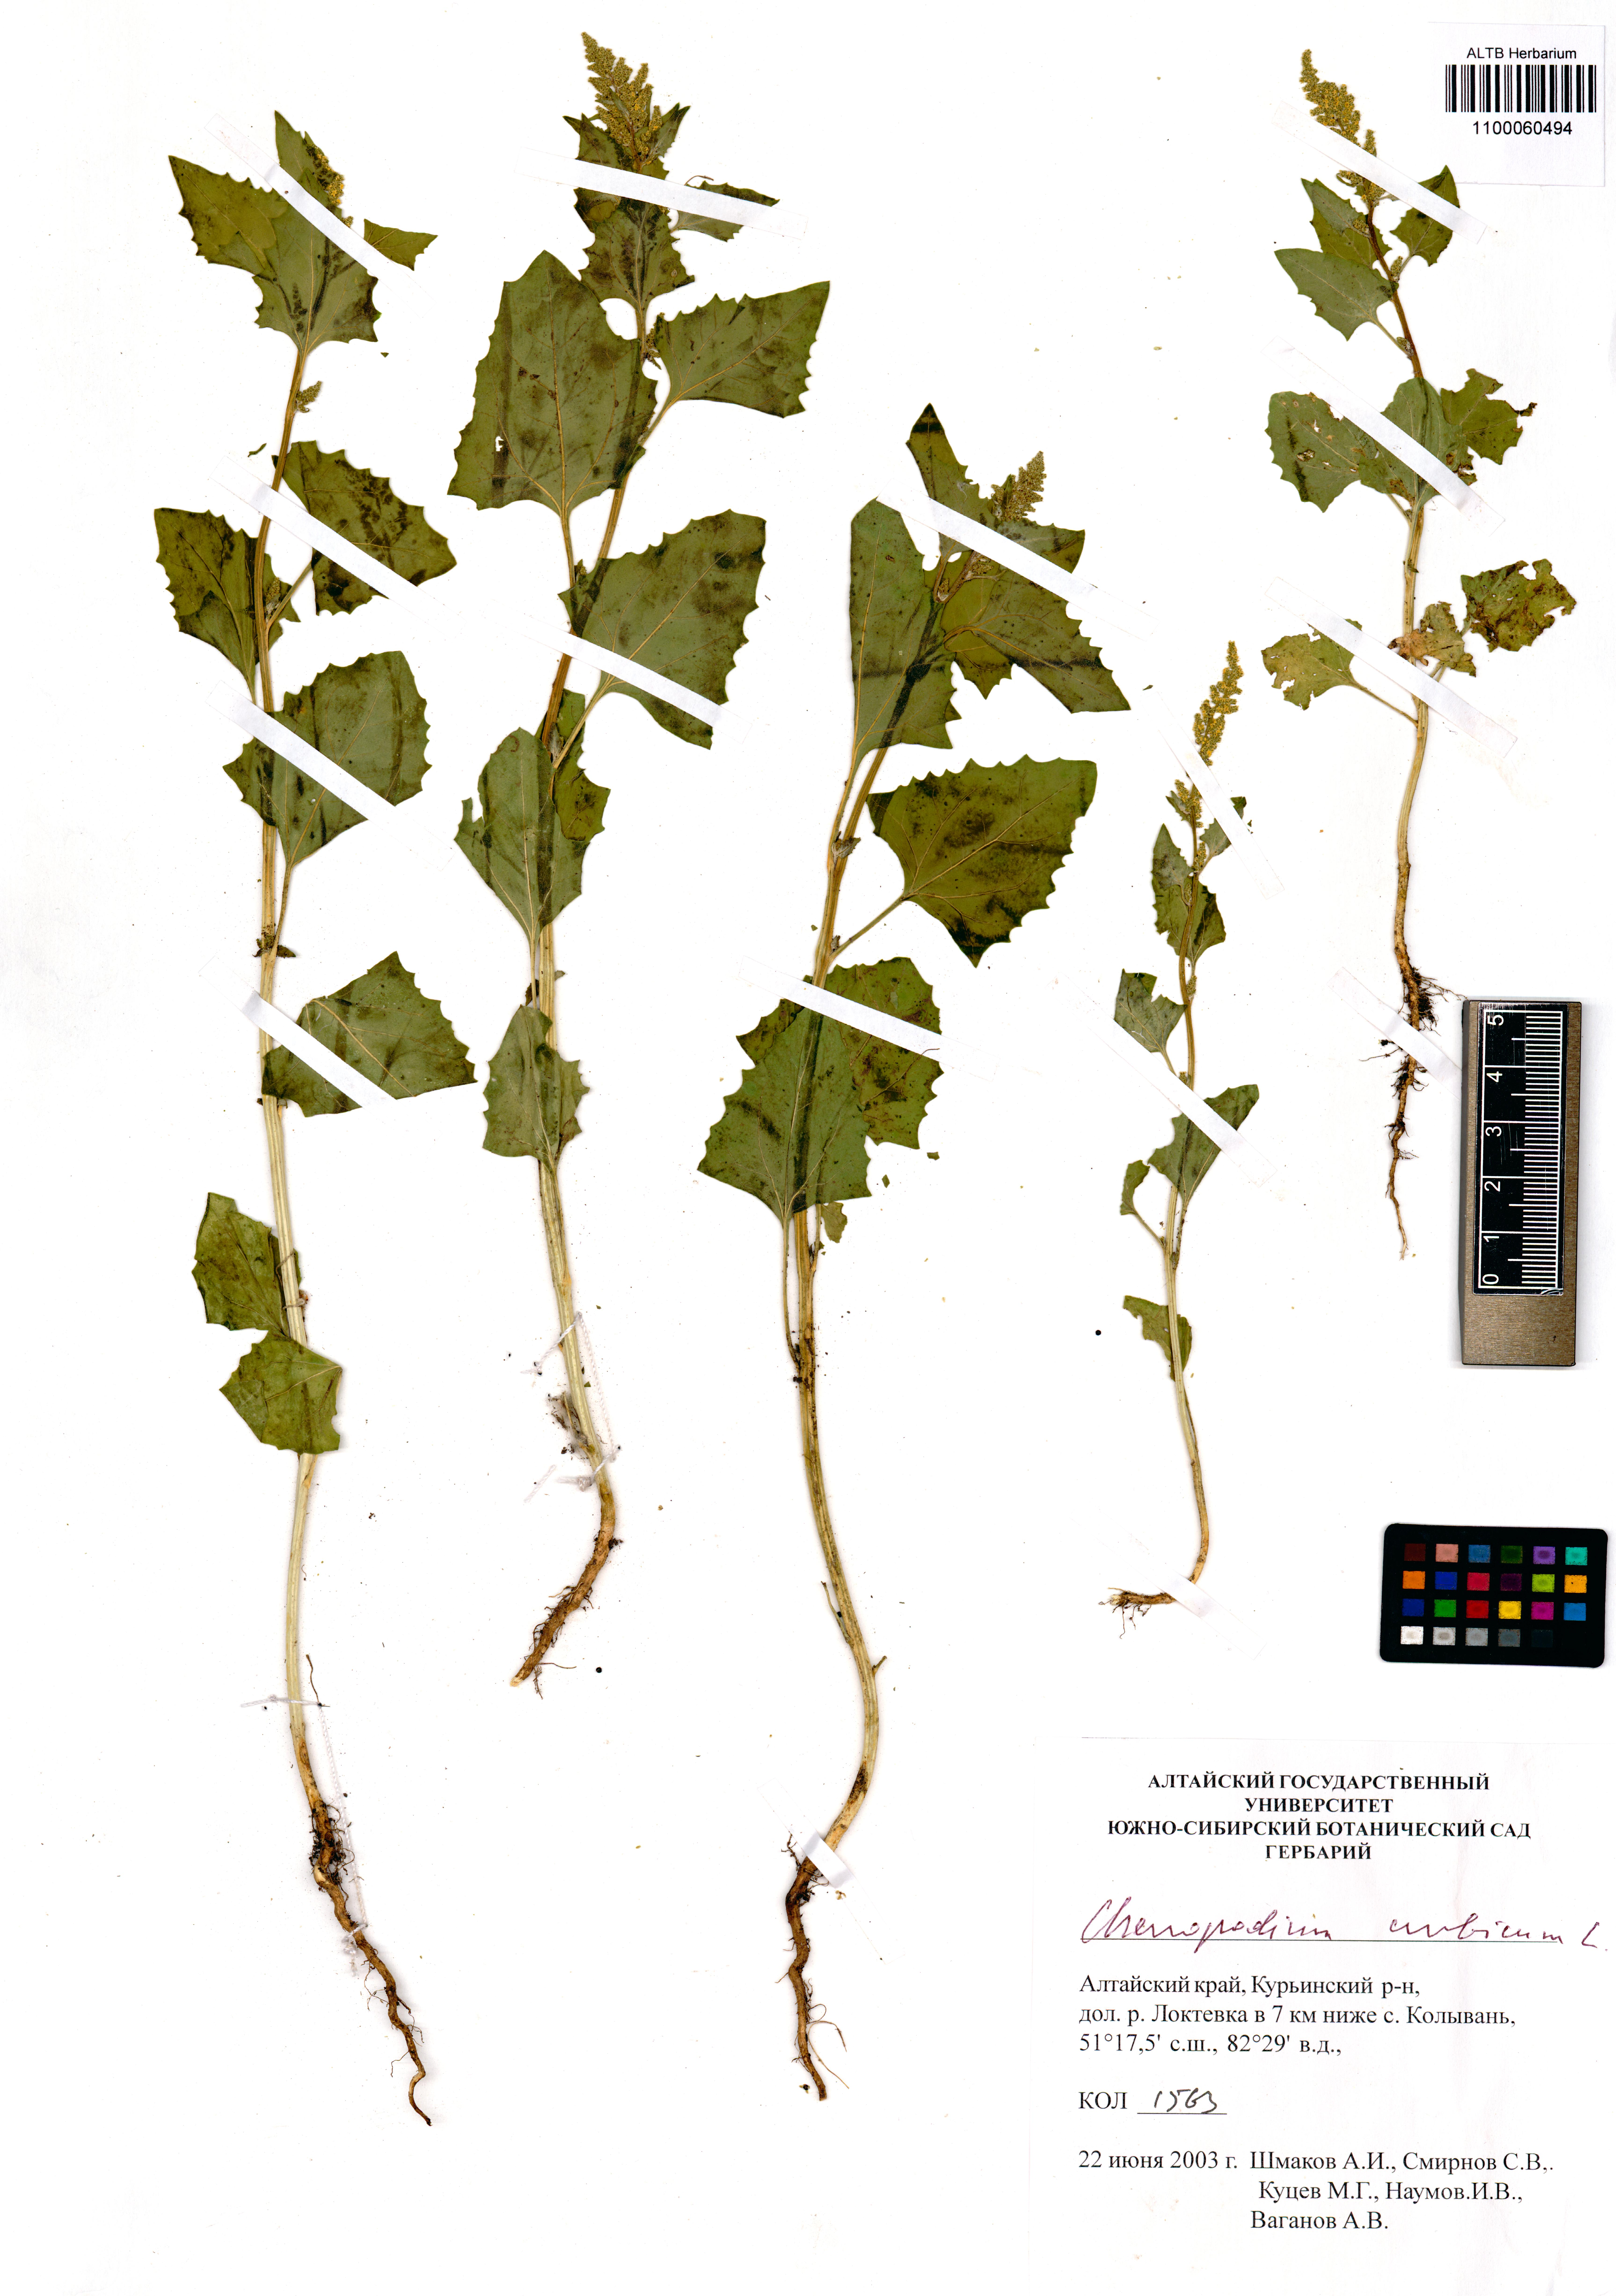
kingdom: Plantae
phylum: Tracheophyta
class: Magnoliopsida
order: Caryophyllales
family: Amaranthaceae
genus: Oxybasis
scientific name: Oxybasis urbica
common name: City goosefoot
